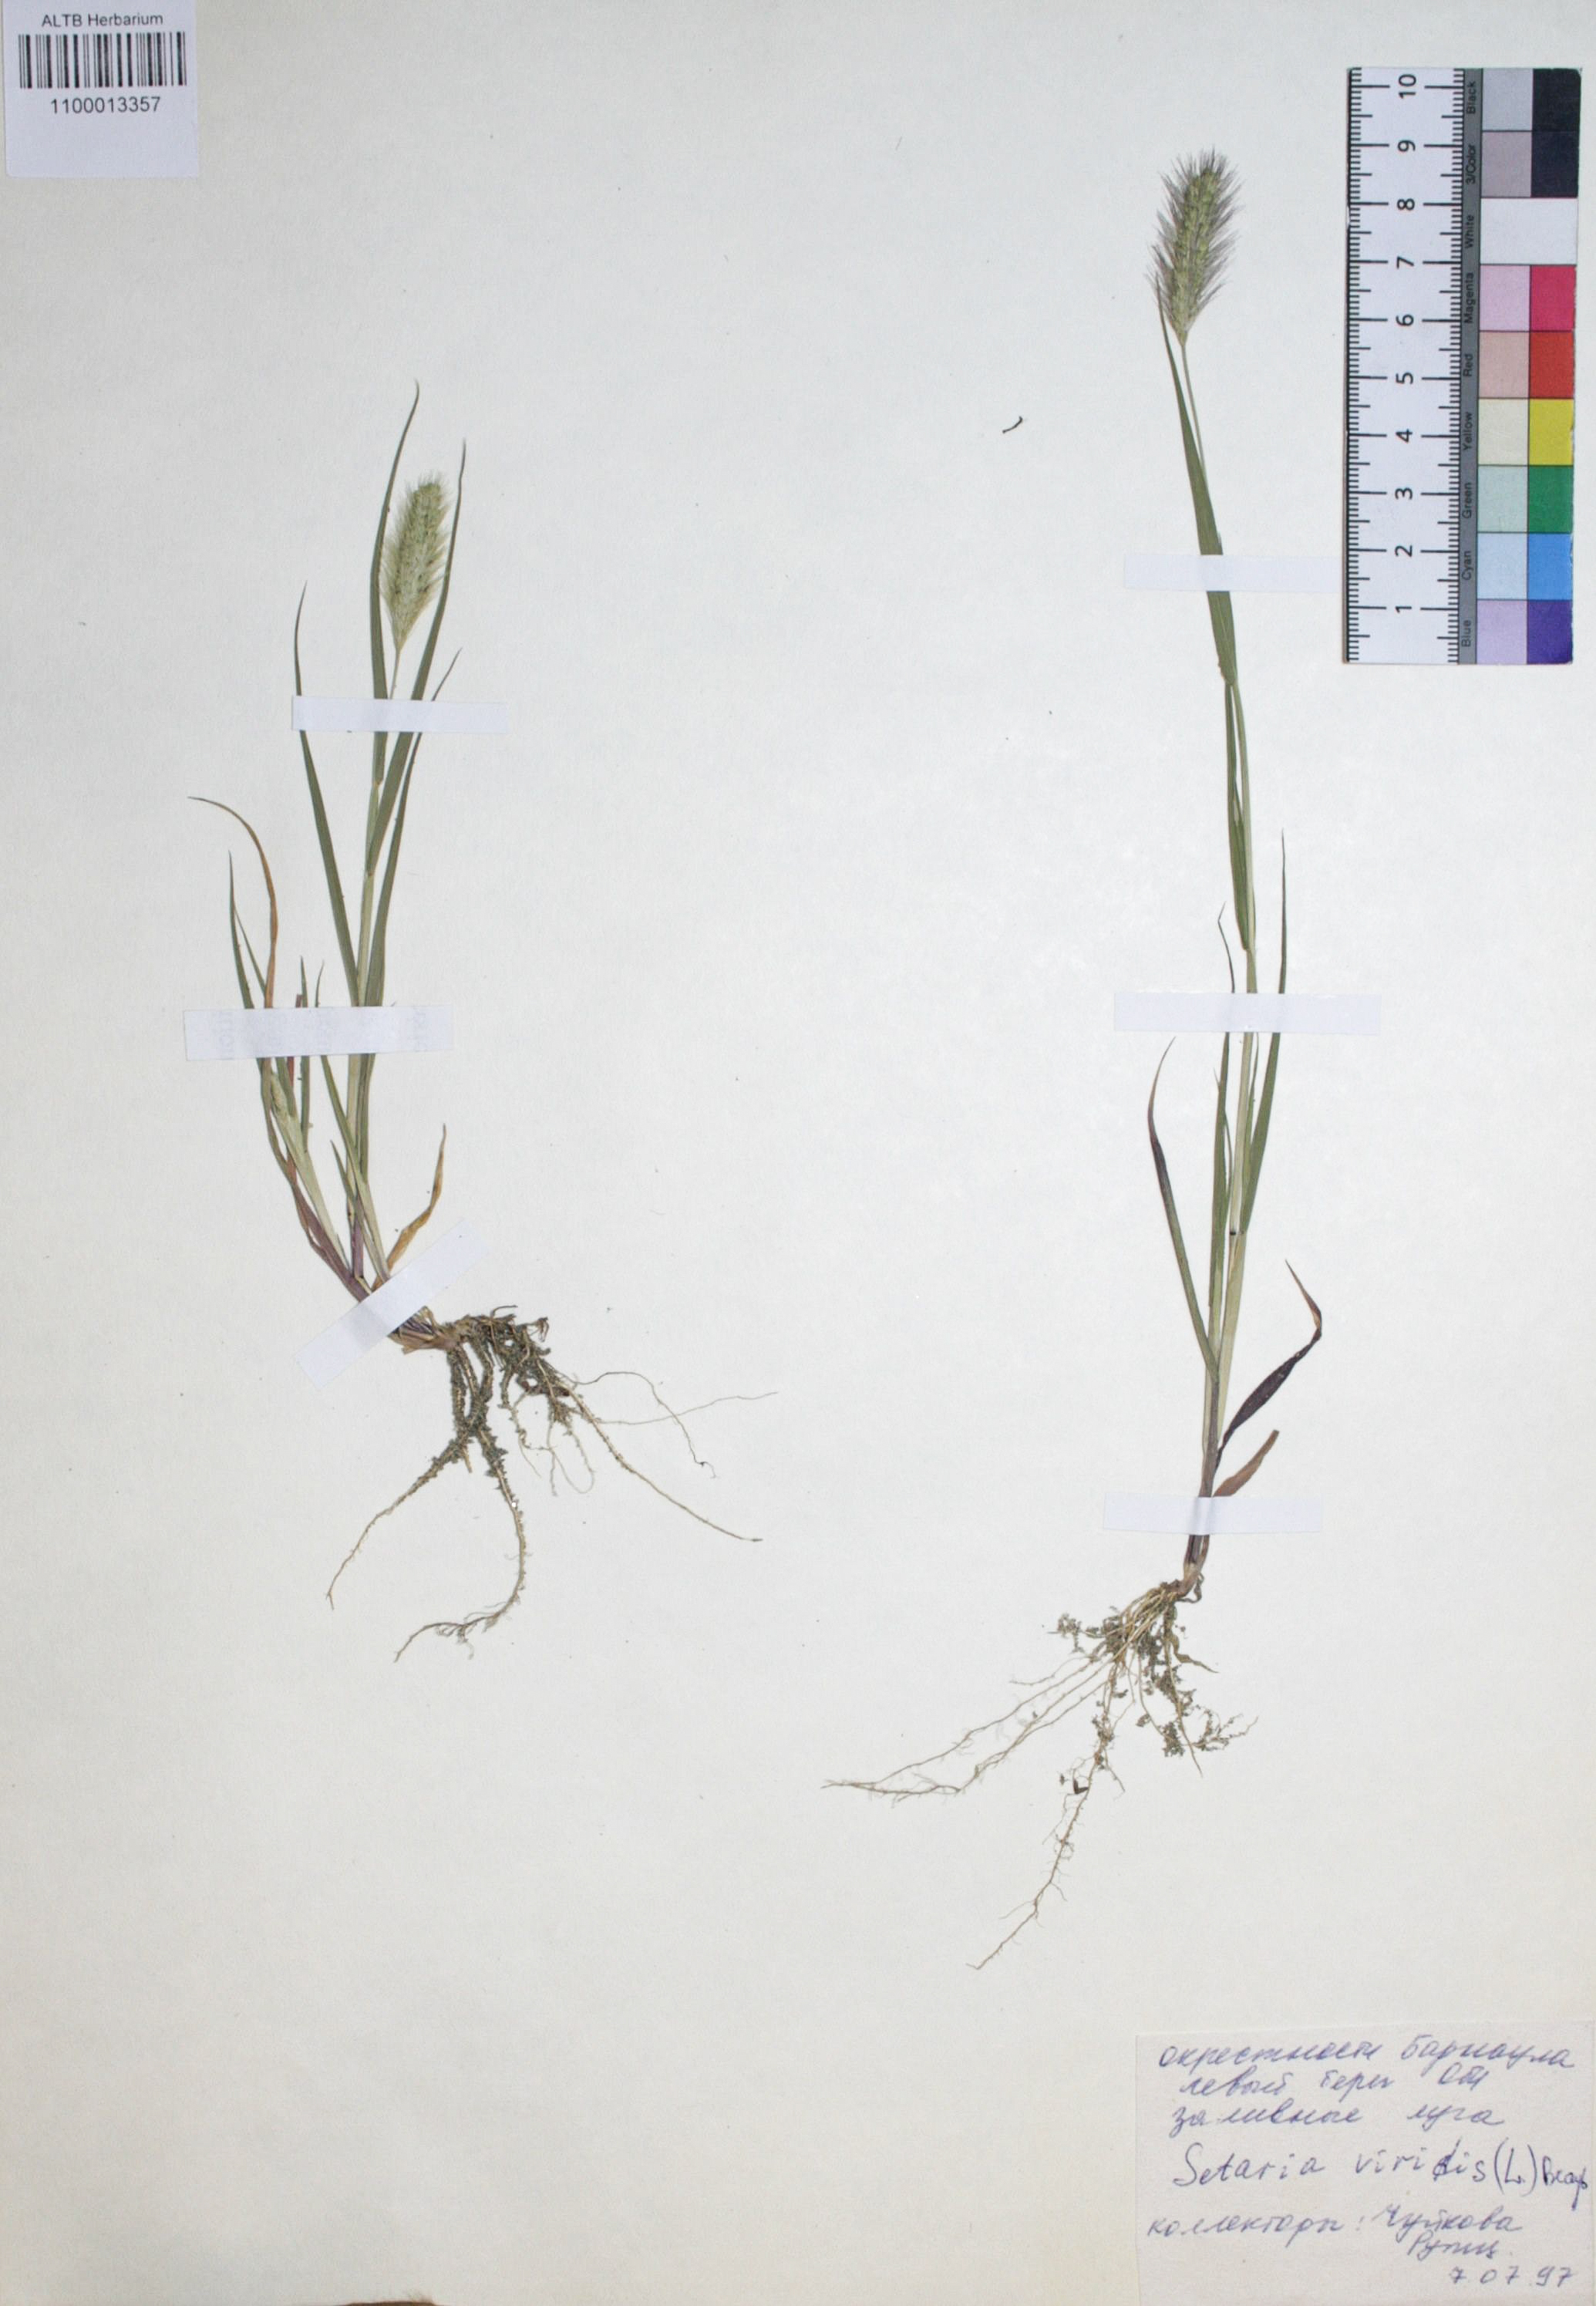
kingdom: Plantae
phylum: Tracheophyta
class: Liliopsida
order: Poales
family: Poaceae
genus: Setaria
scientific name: Setaria viridis
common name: Green bristlegrass
